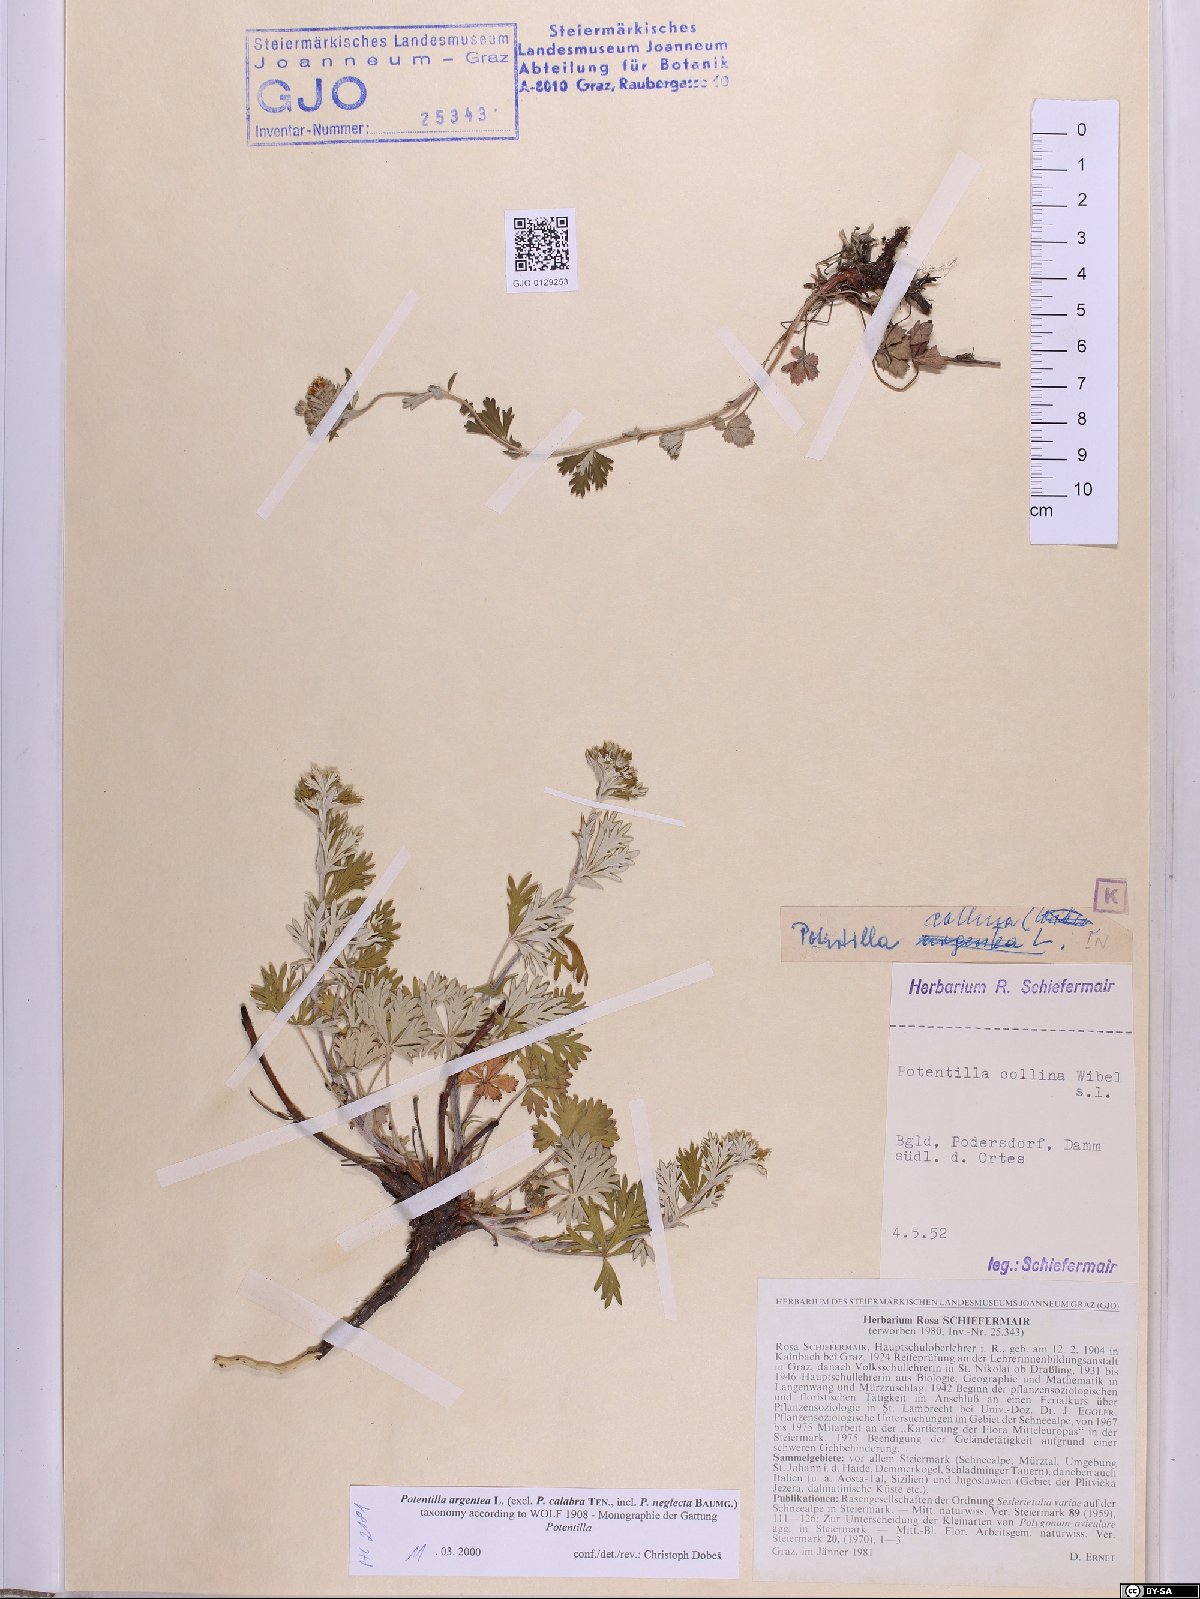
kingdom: Plantae
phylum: Tracheophyta
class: Magnoliopsida
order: Rosales
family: Rosaceae
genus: Potentilla
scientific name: Potentilla argentea
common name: Hoary cinquefoil
